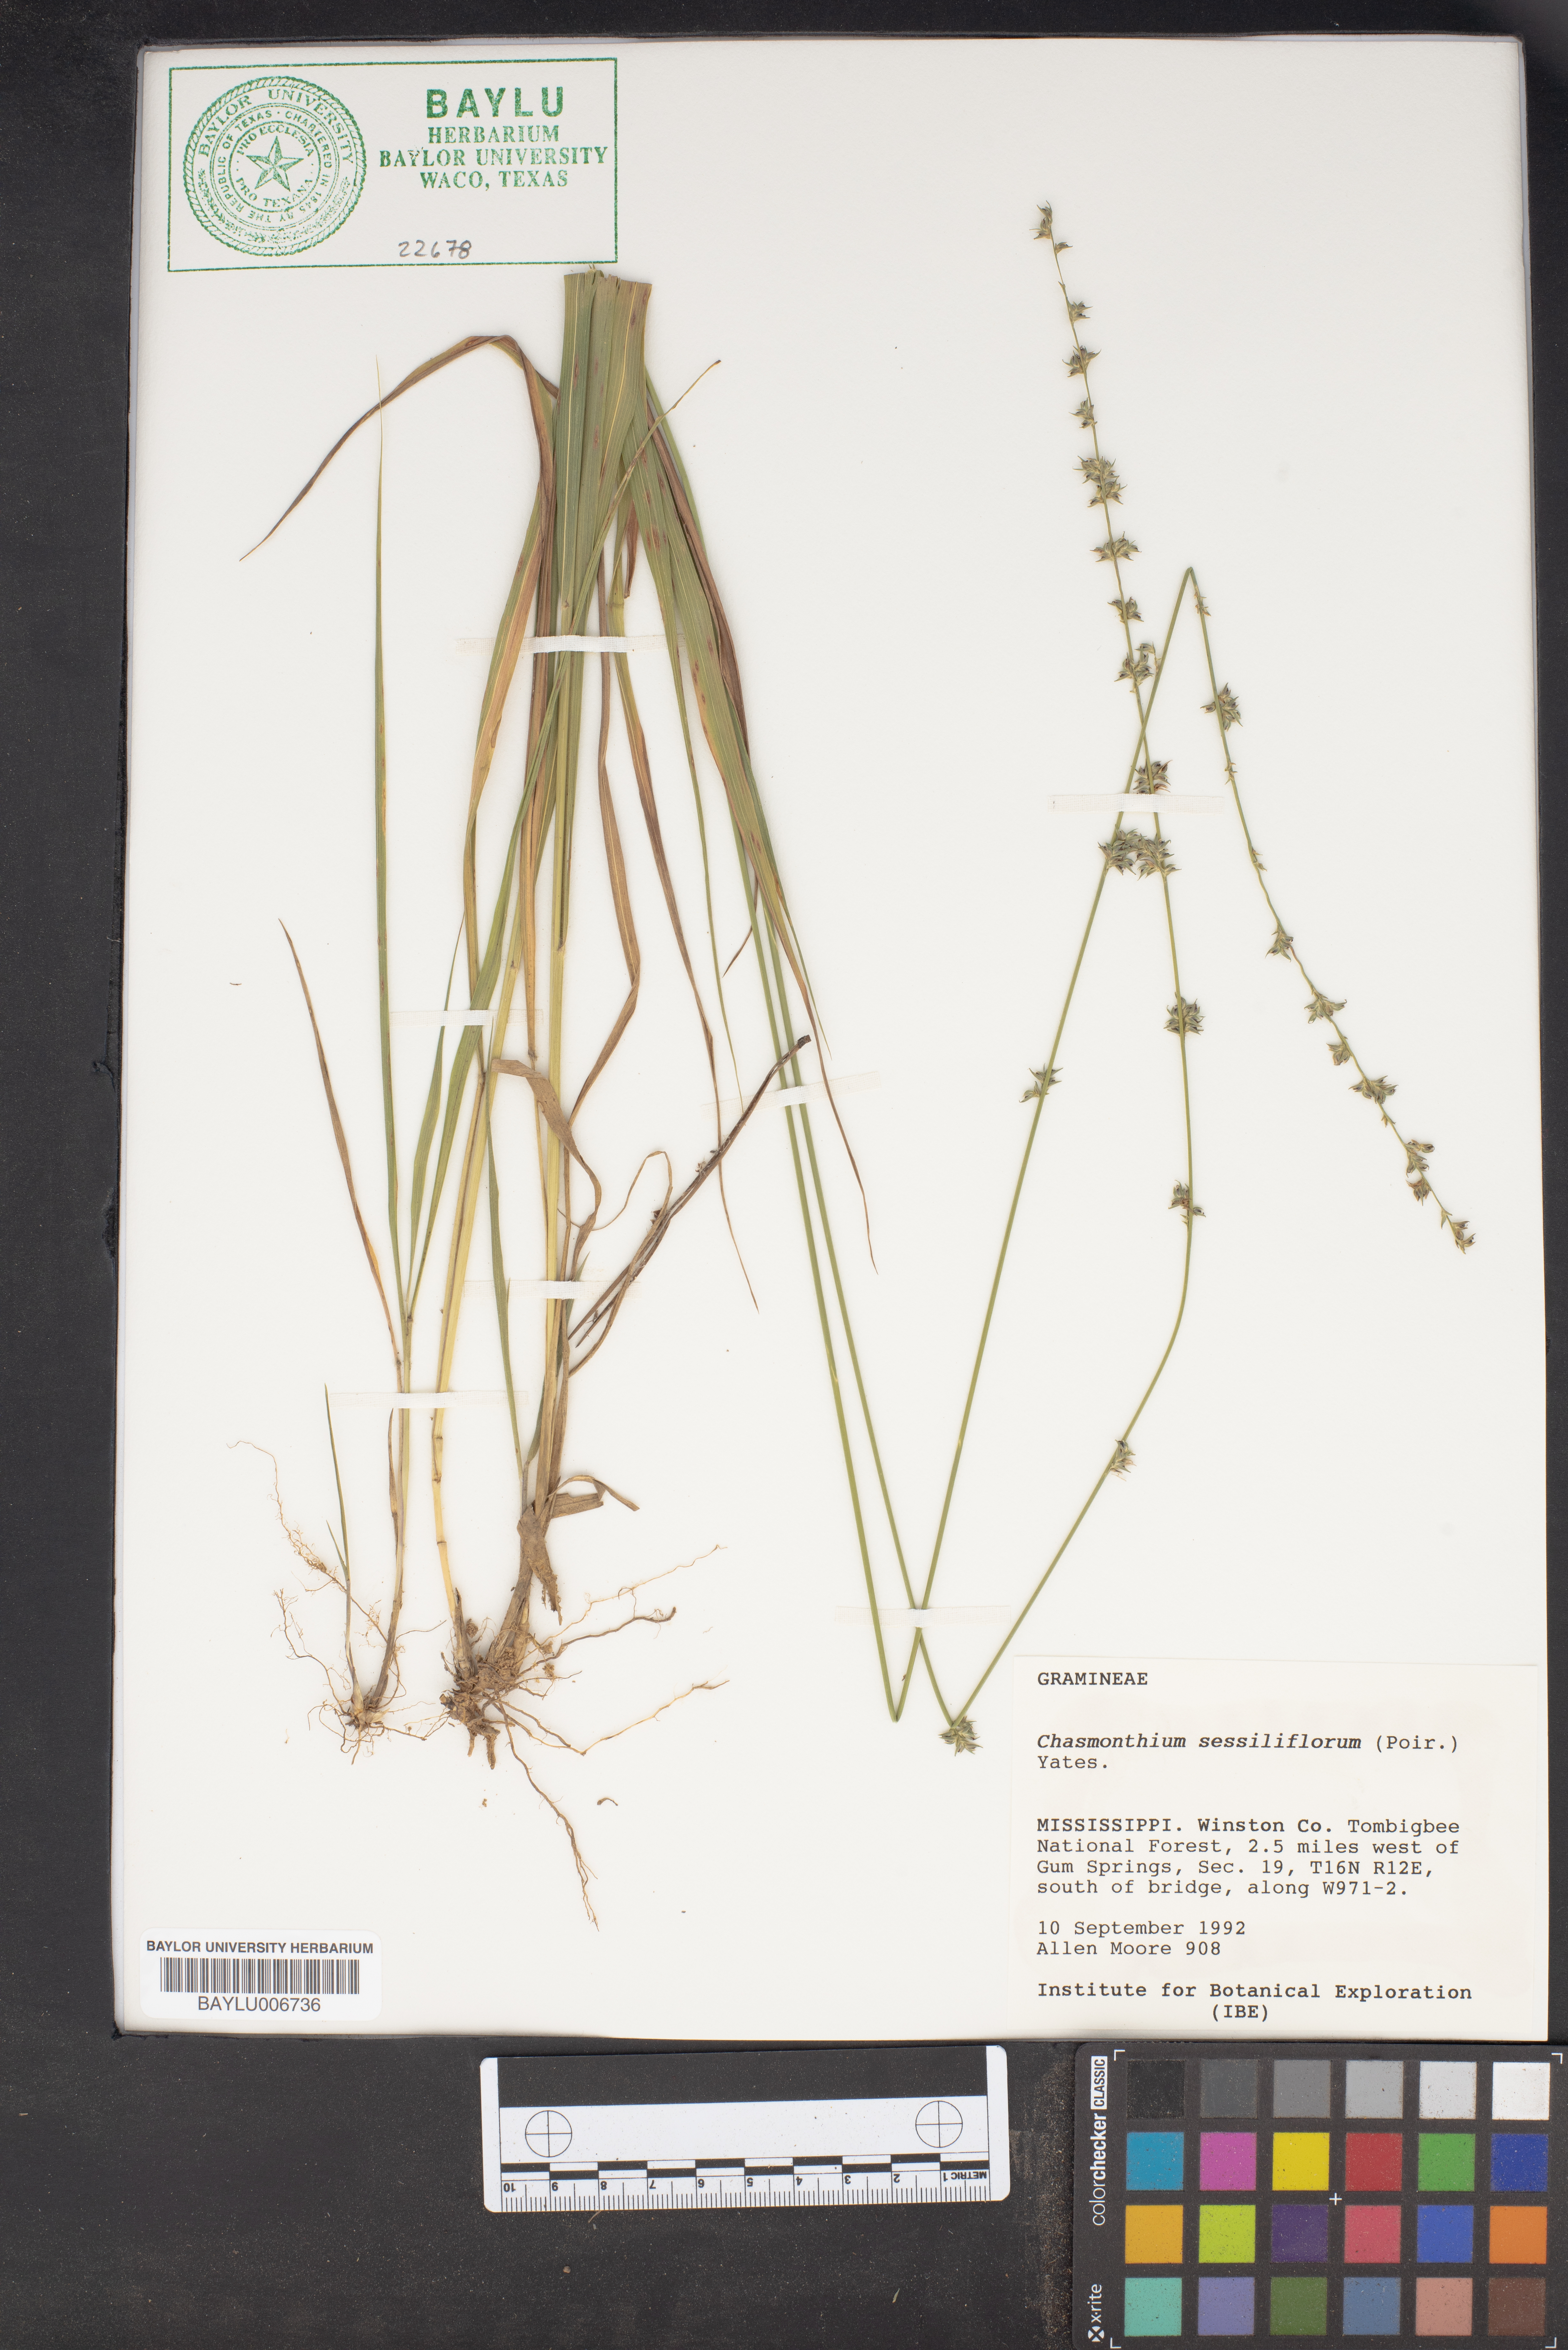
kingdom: Plantae
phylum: Tracheophyta
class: Liliopsida
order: Poales
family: Poaceae
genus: Chasmanthium
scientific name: Chasmanthium laxum
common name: Slender chasmanthium
